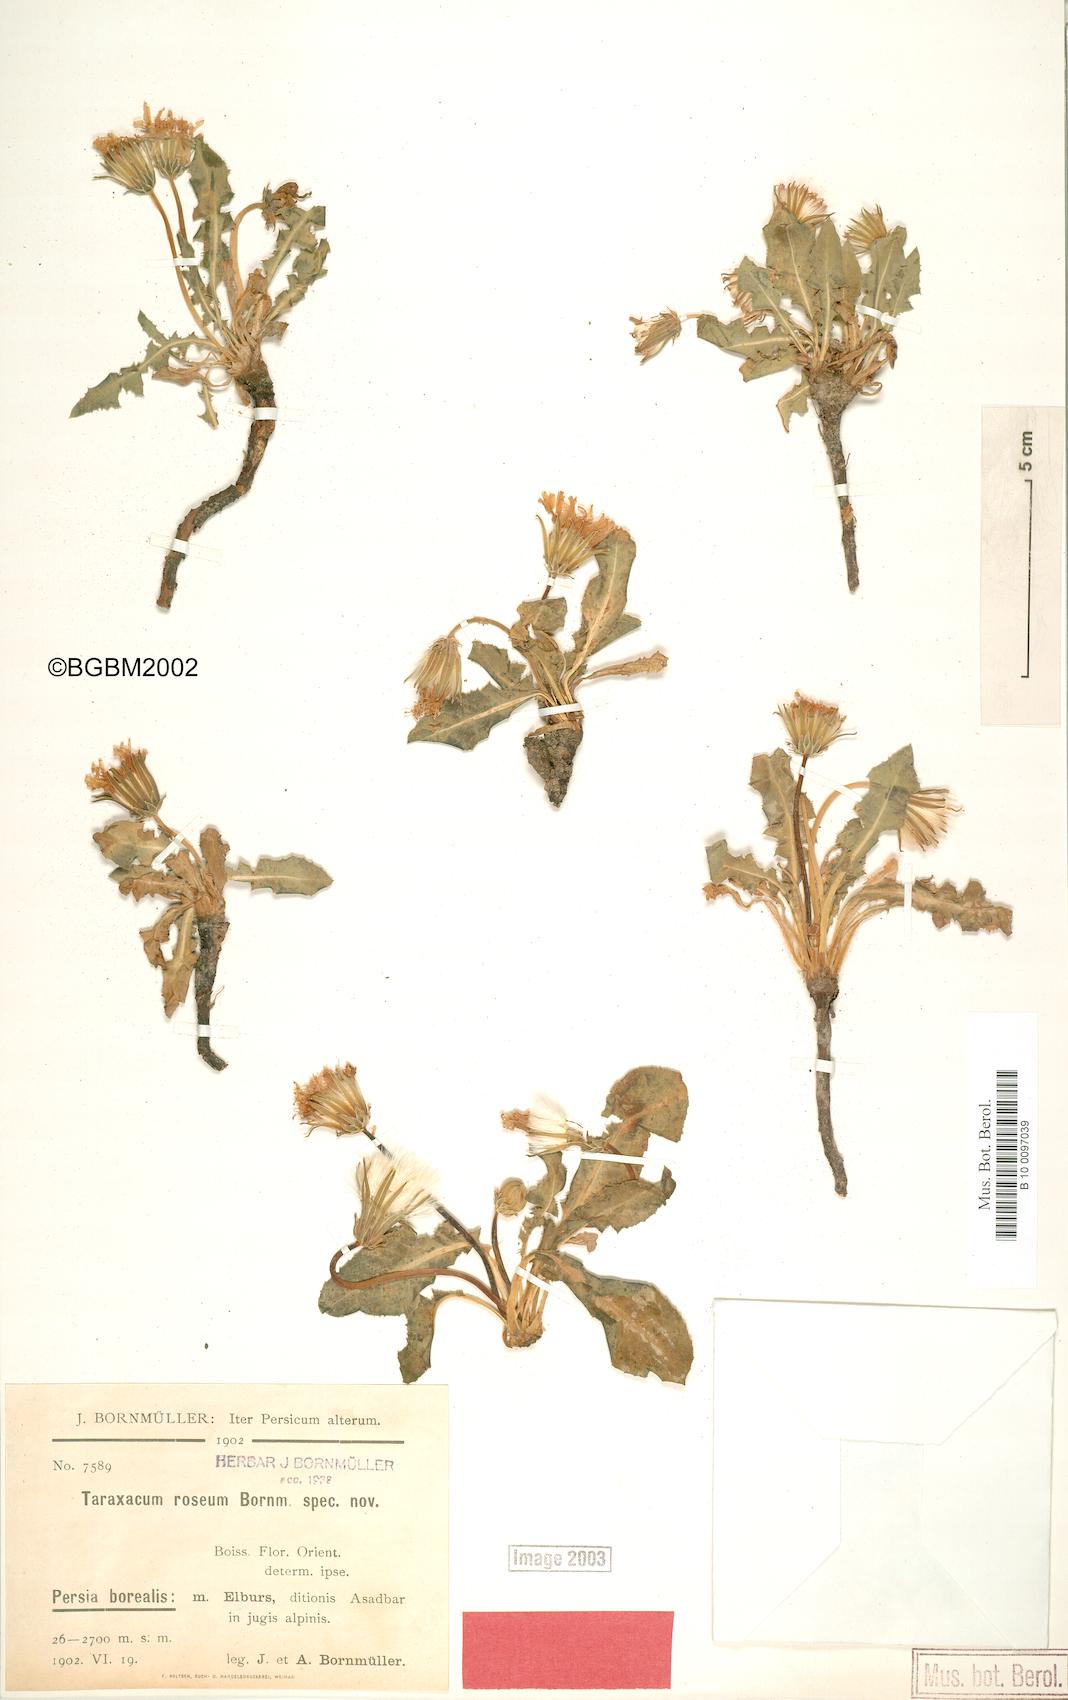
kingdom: Plantae
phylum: Tracheophyta
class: Magnoliopsida
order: Asterales
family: Asteraceae
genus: Taraxacum
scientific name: Taraxacum roseum
